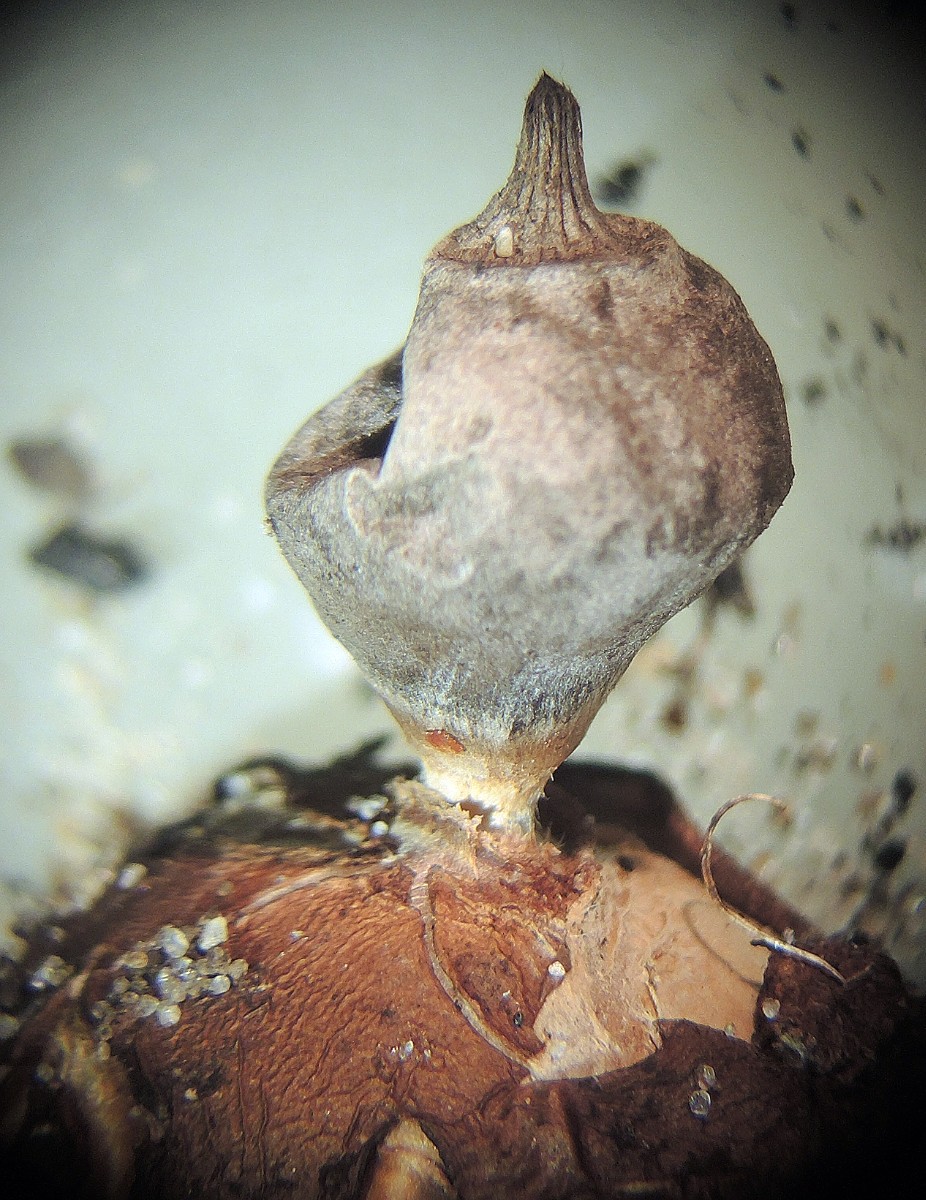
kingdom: Fungi
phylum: Basidiomycota
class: Agaricomycetes
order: Geastrales
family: Geastraceae
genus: Geastrum
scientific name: Geastrum striatum
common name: dværg-stjernebold
